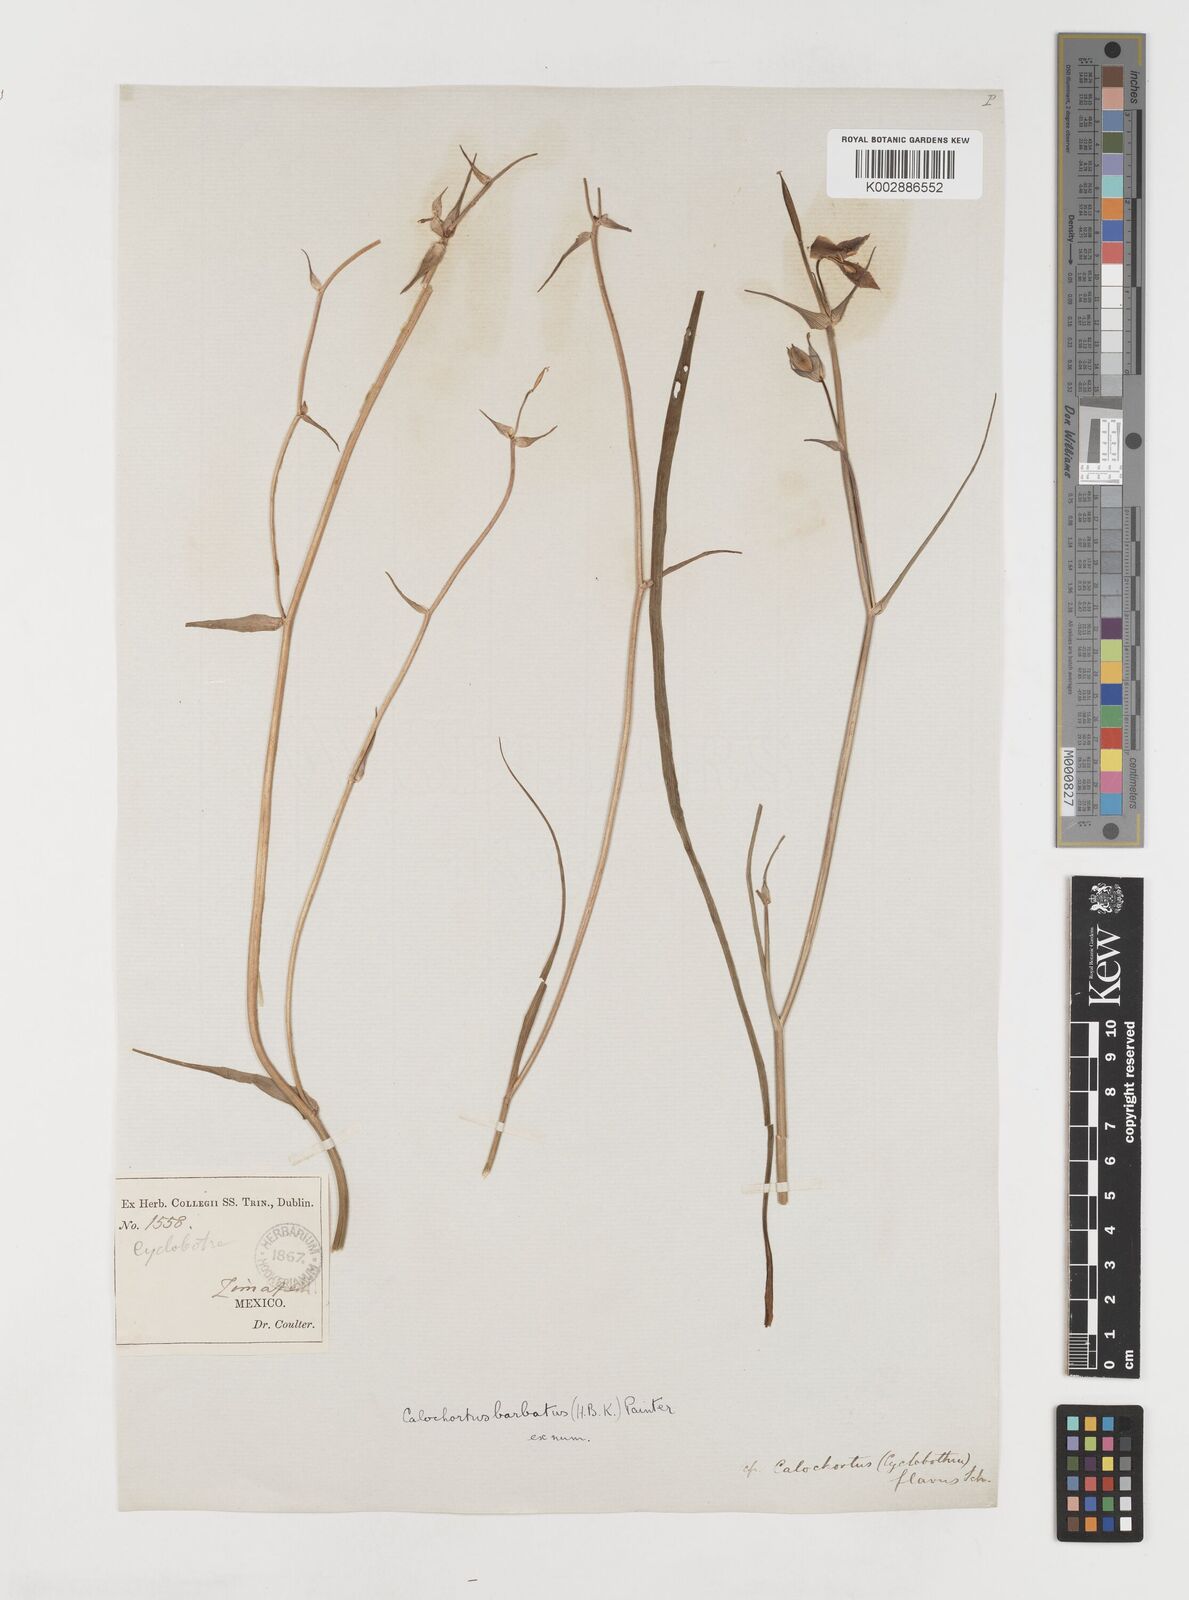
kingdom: Plantae
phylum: Tracheophyta
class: Liliopsida
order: Liliales
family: Liliaceae
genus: Calochortus
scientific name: Calochortus barbatus
